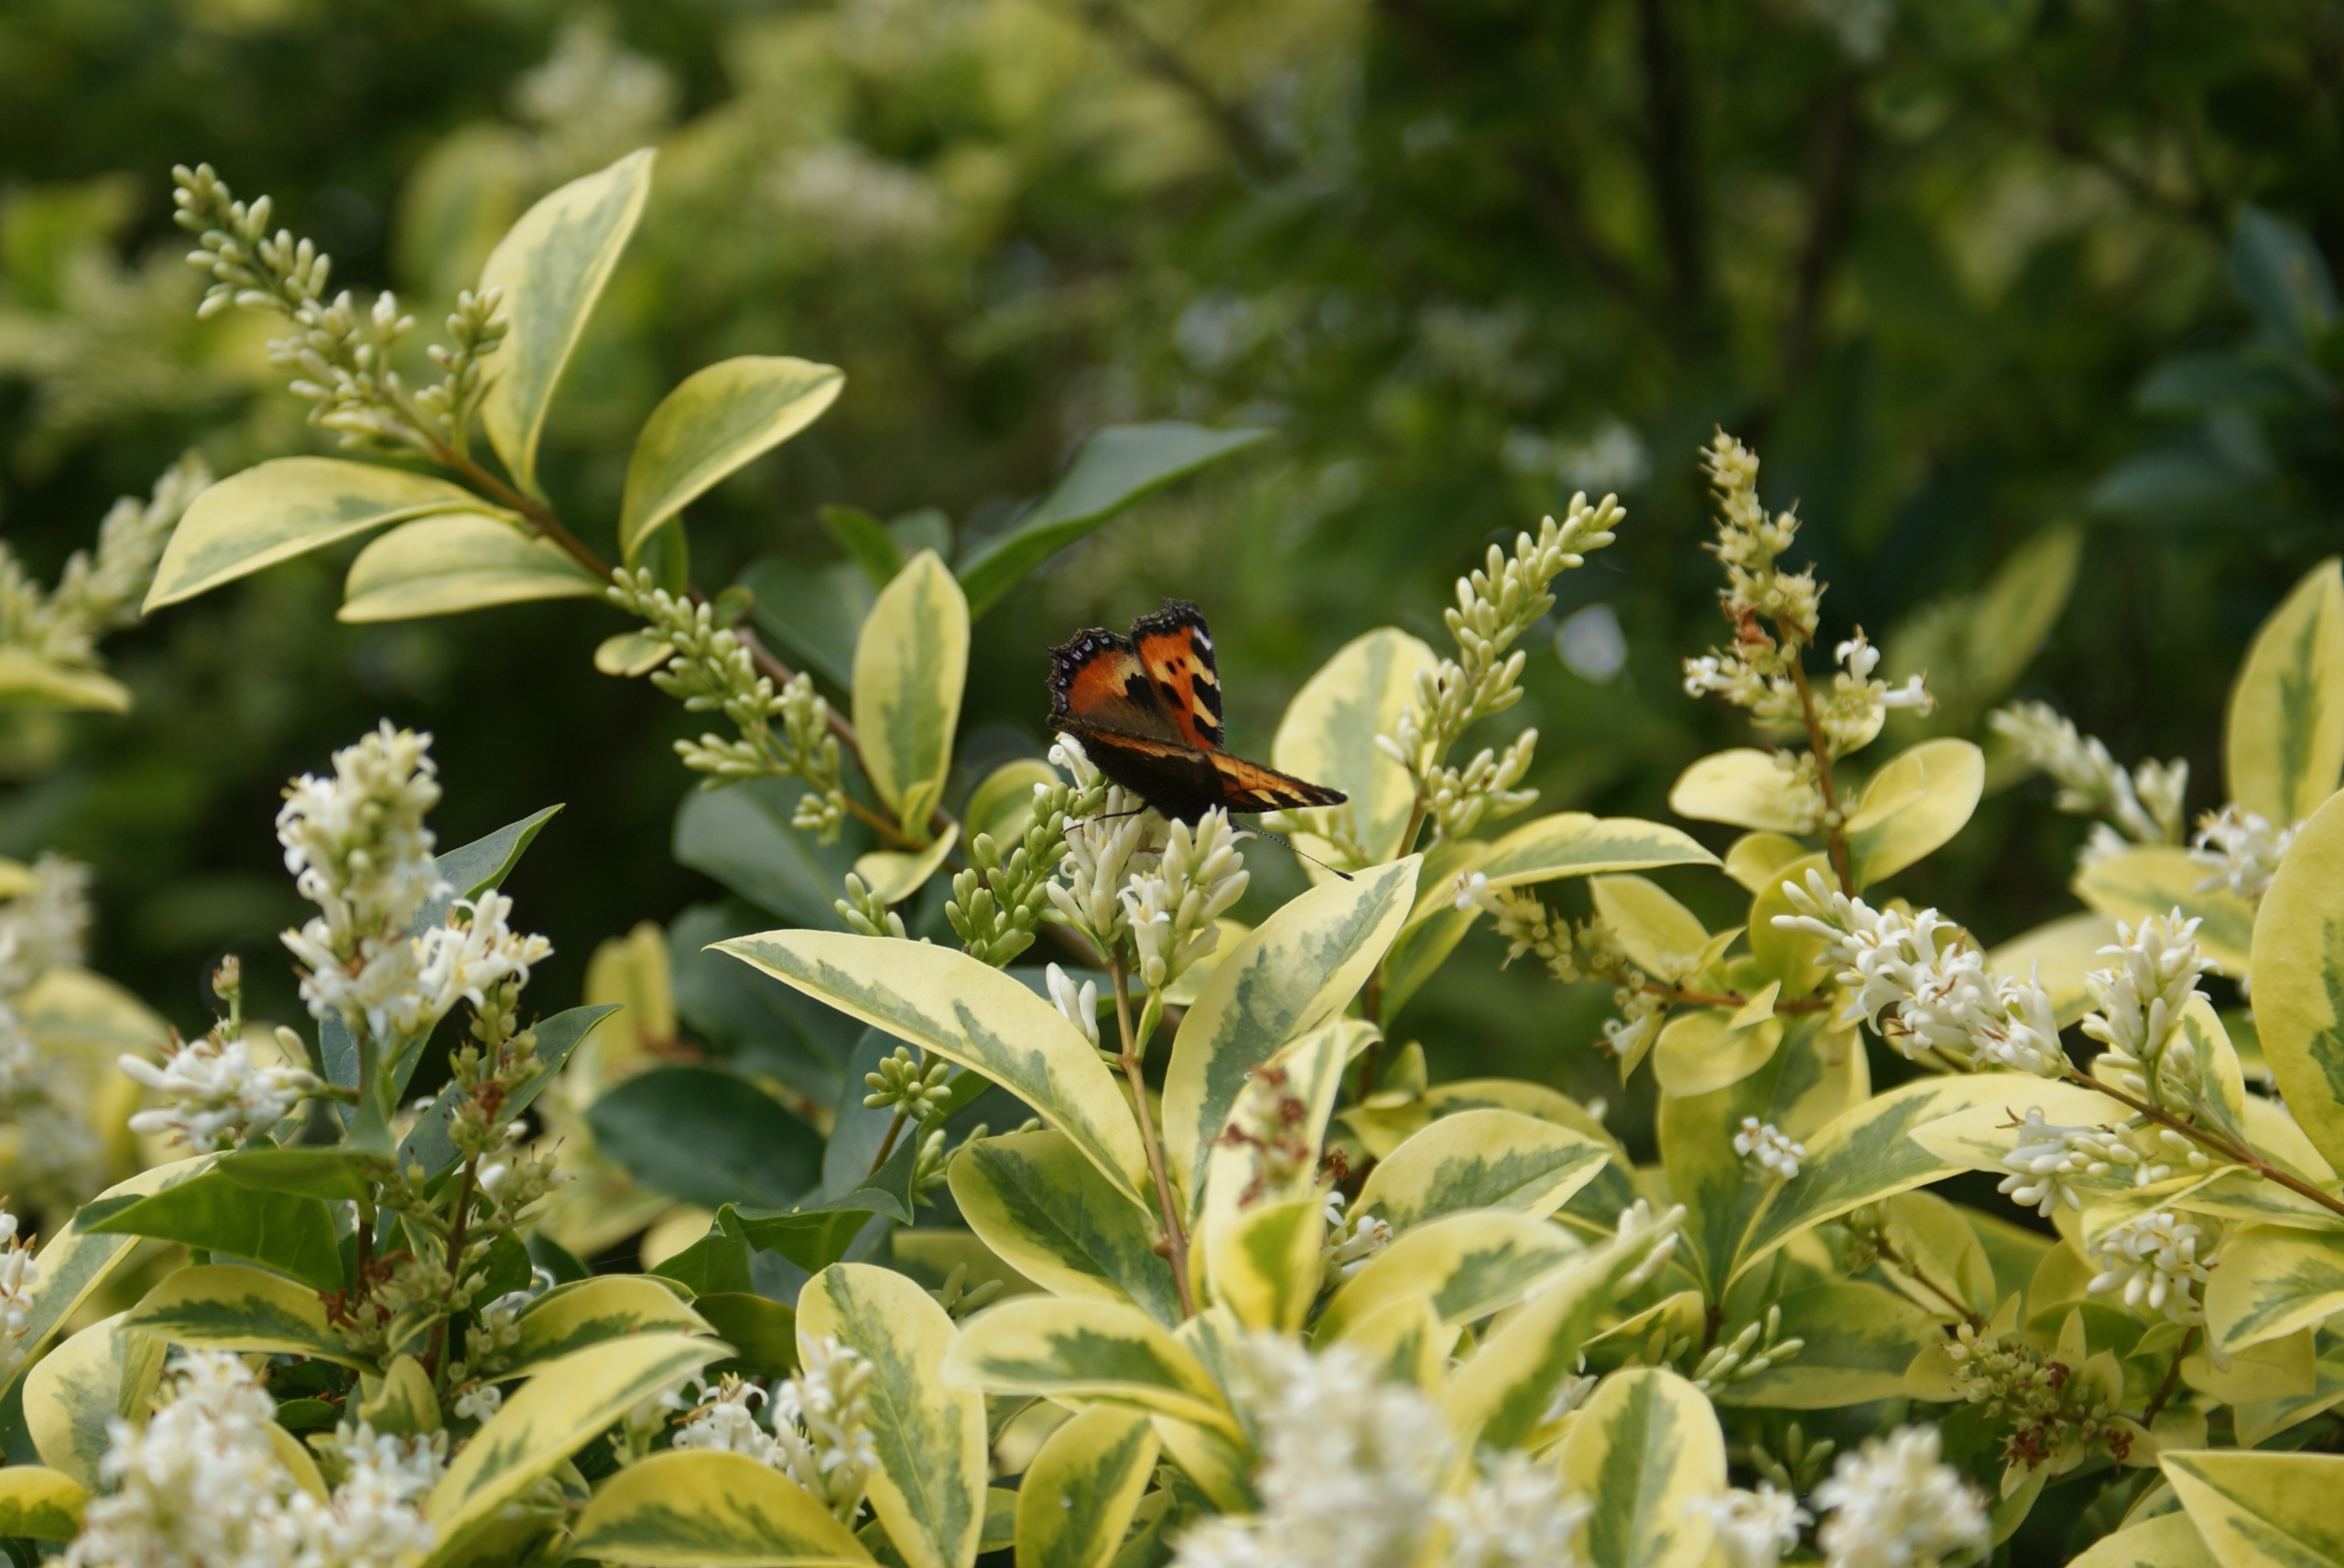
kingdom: Animalia
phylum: Arthropoda
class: Insecta
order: Lepidoptera
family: Nymphalidae
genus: Aglais
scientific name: Aglais urticae
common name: Nældens takvinge
